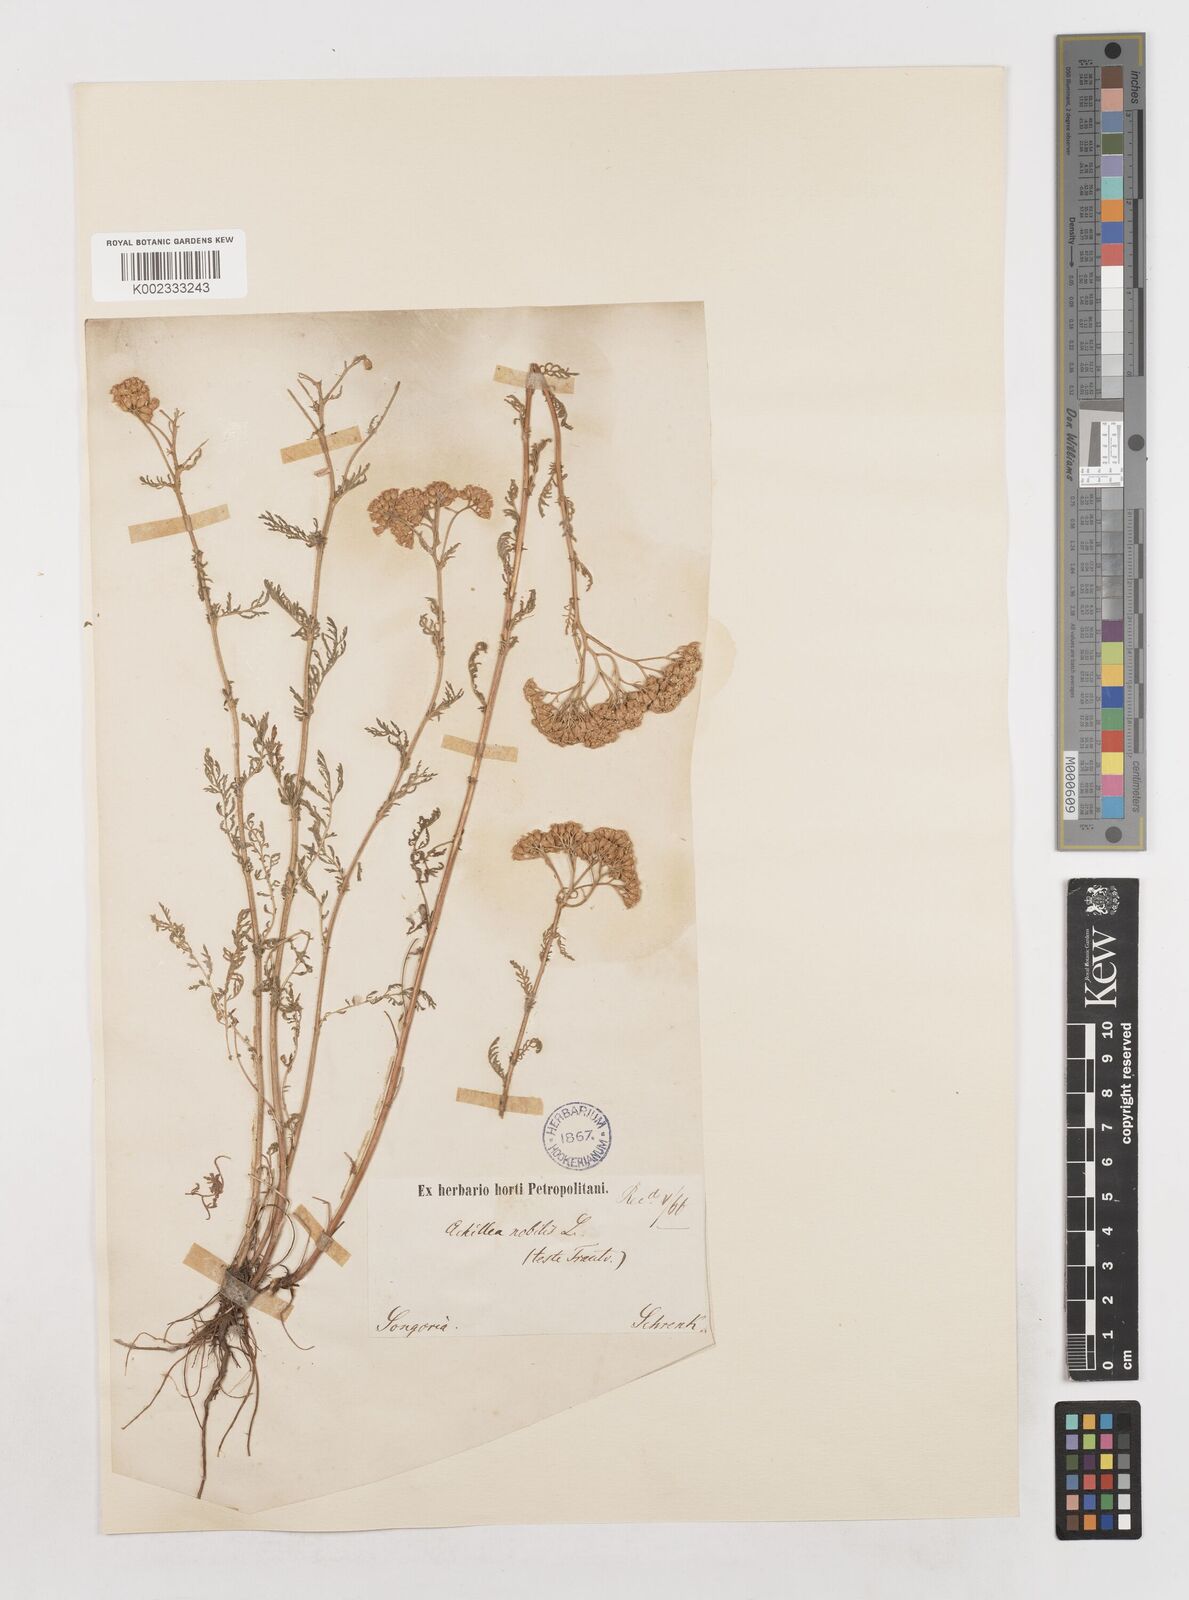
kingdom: Plantae
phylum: Tracheophyta
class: Magnoliopsida
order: Asterales
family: Asteraceae
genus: Achillea
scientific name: Achillea nobilis
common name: Noble yarrow
